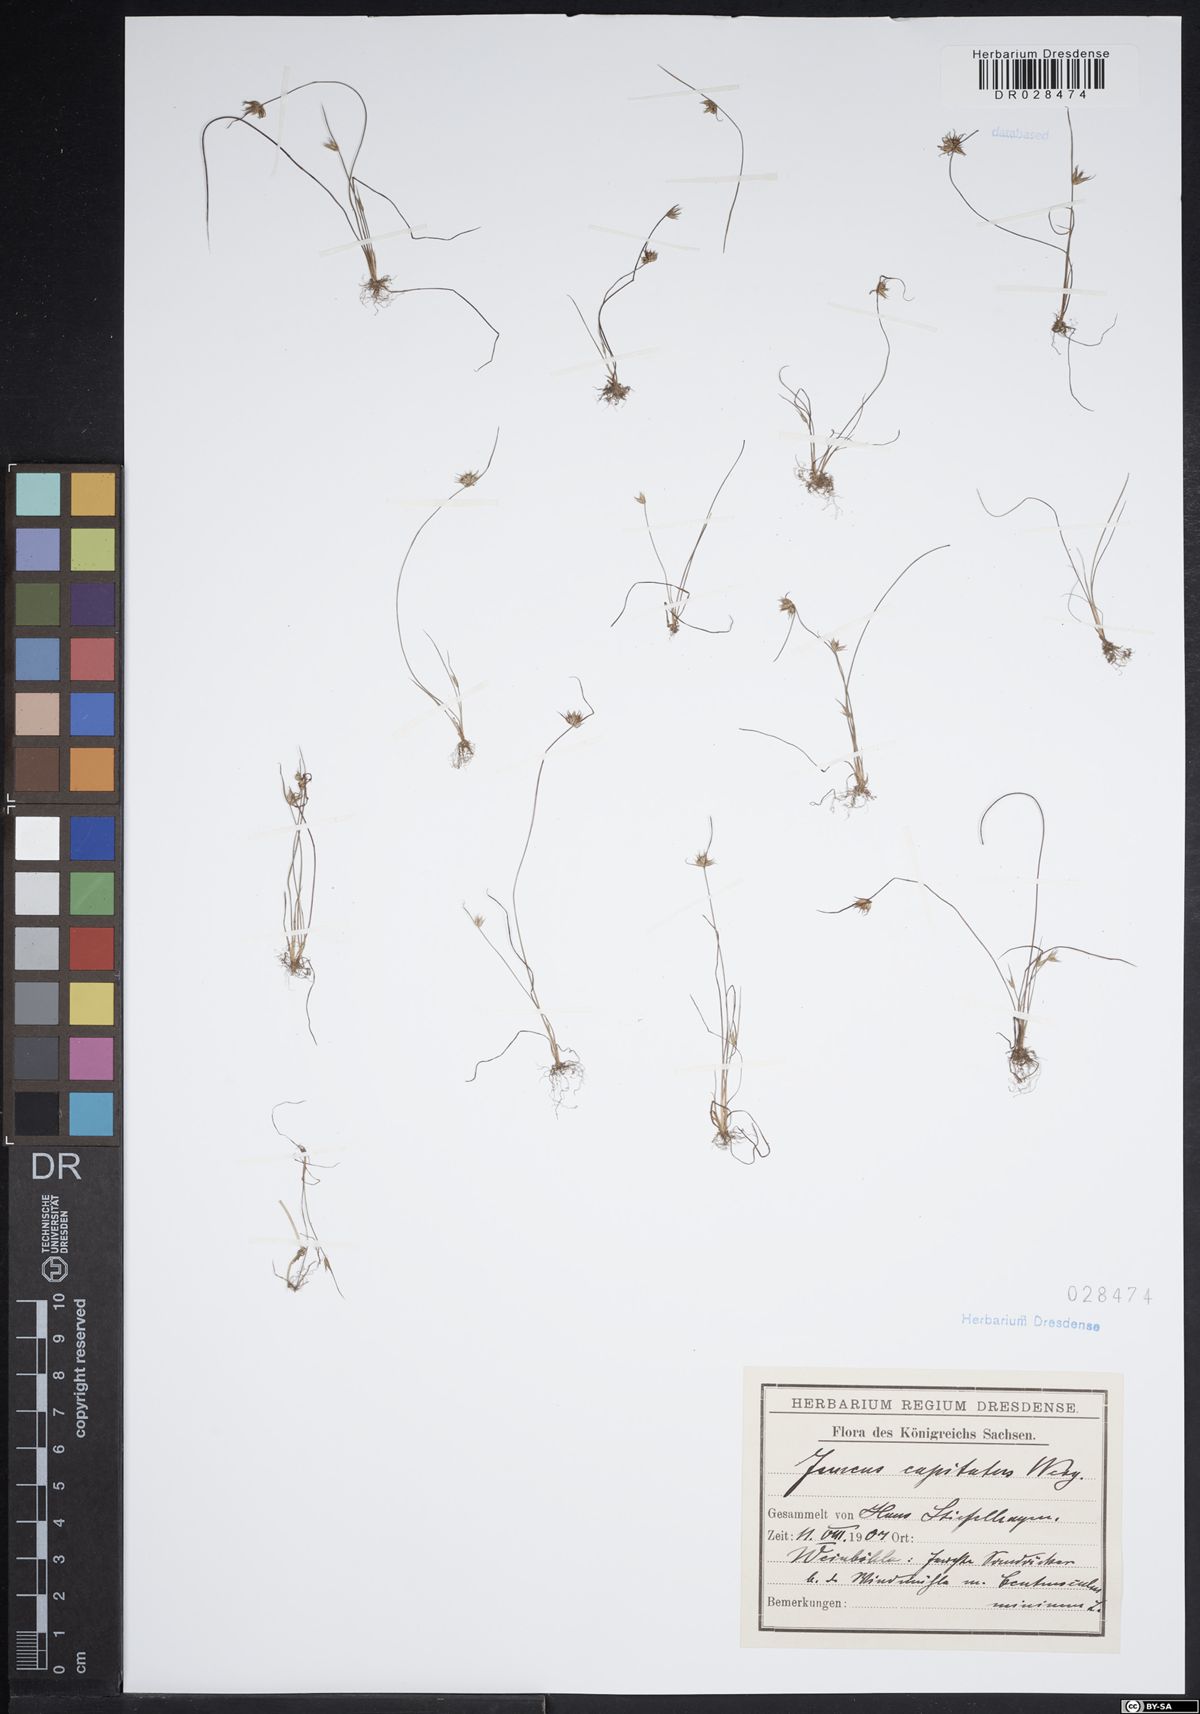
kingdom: Plantae
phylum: Tracheophyta
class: Liliopsida
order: Poales
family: Juncaceae
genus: Juncus
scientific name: Juncus capitatus
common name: Dwarf rush
